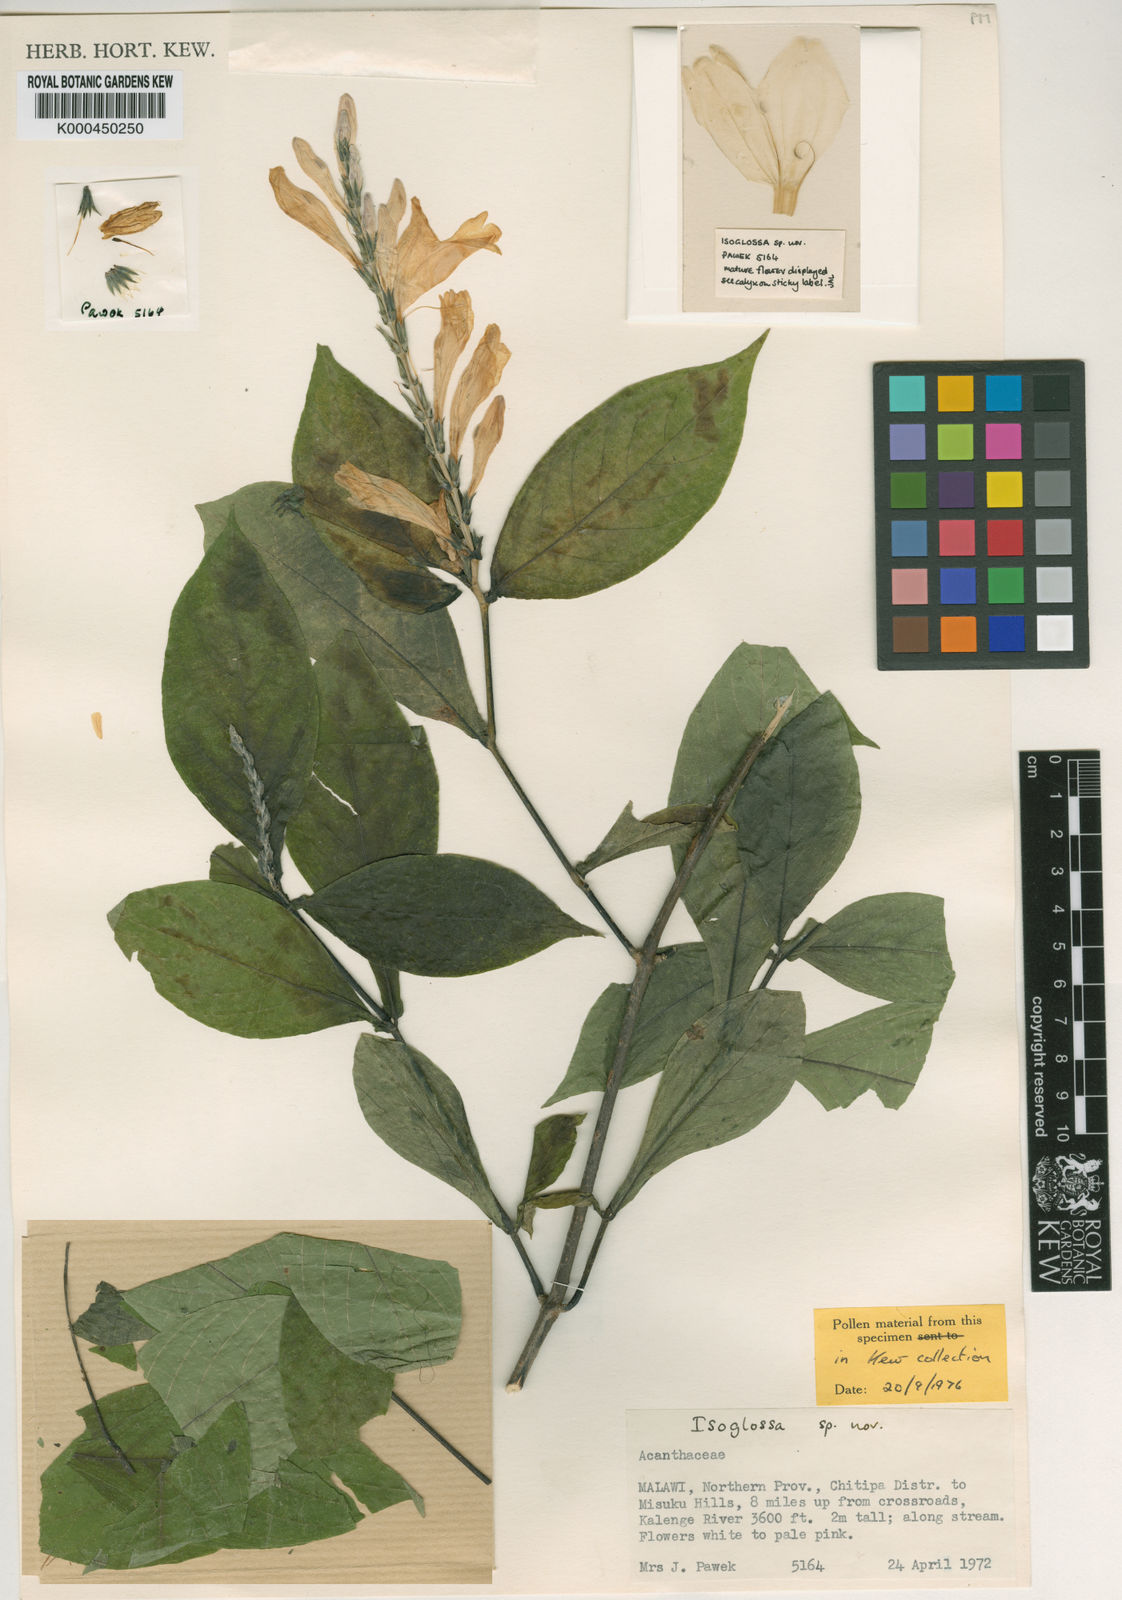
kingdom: Plantae
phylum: Tracheophyta
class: Magnoliopsida
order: Lamiales
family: Acanthaceae
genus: Isoglossa
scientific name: Isoglossa pawekiae
